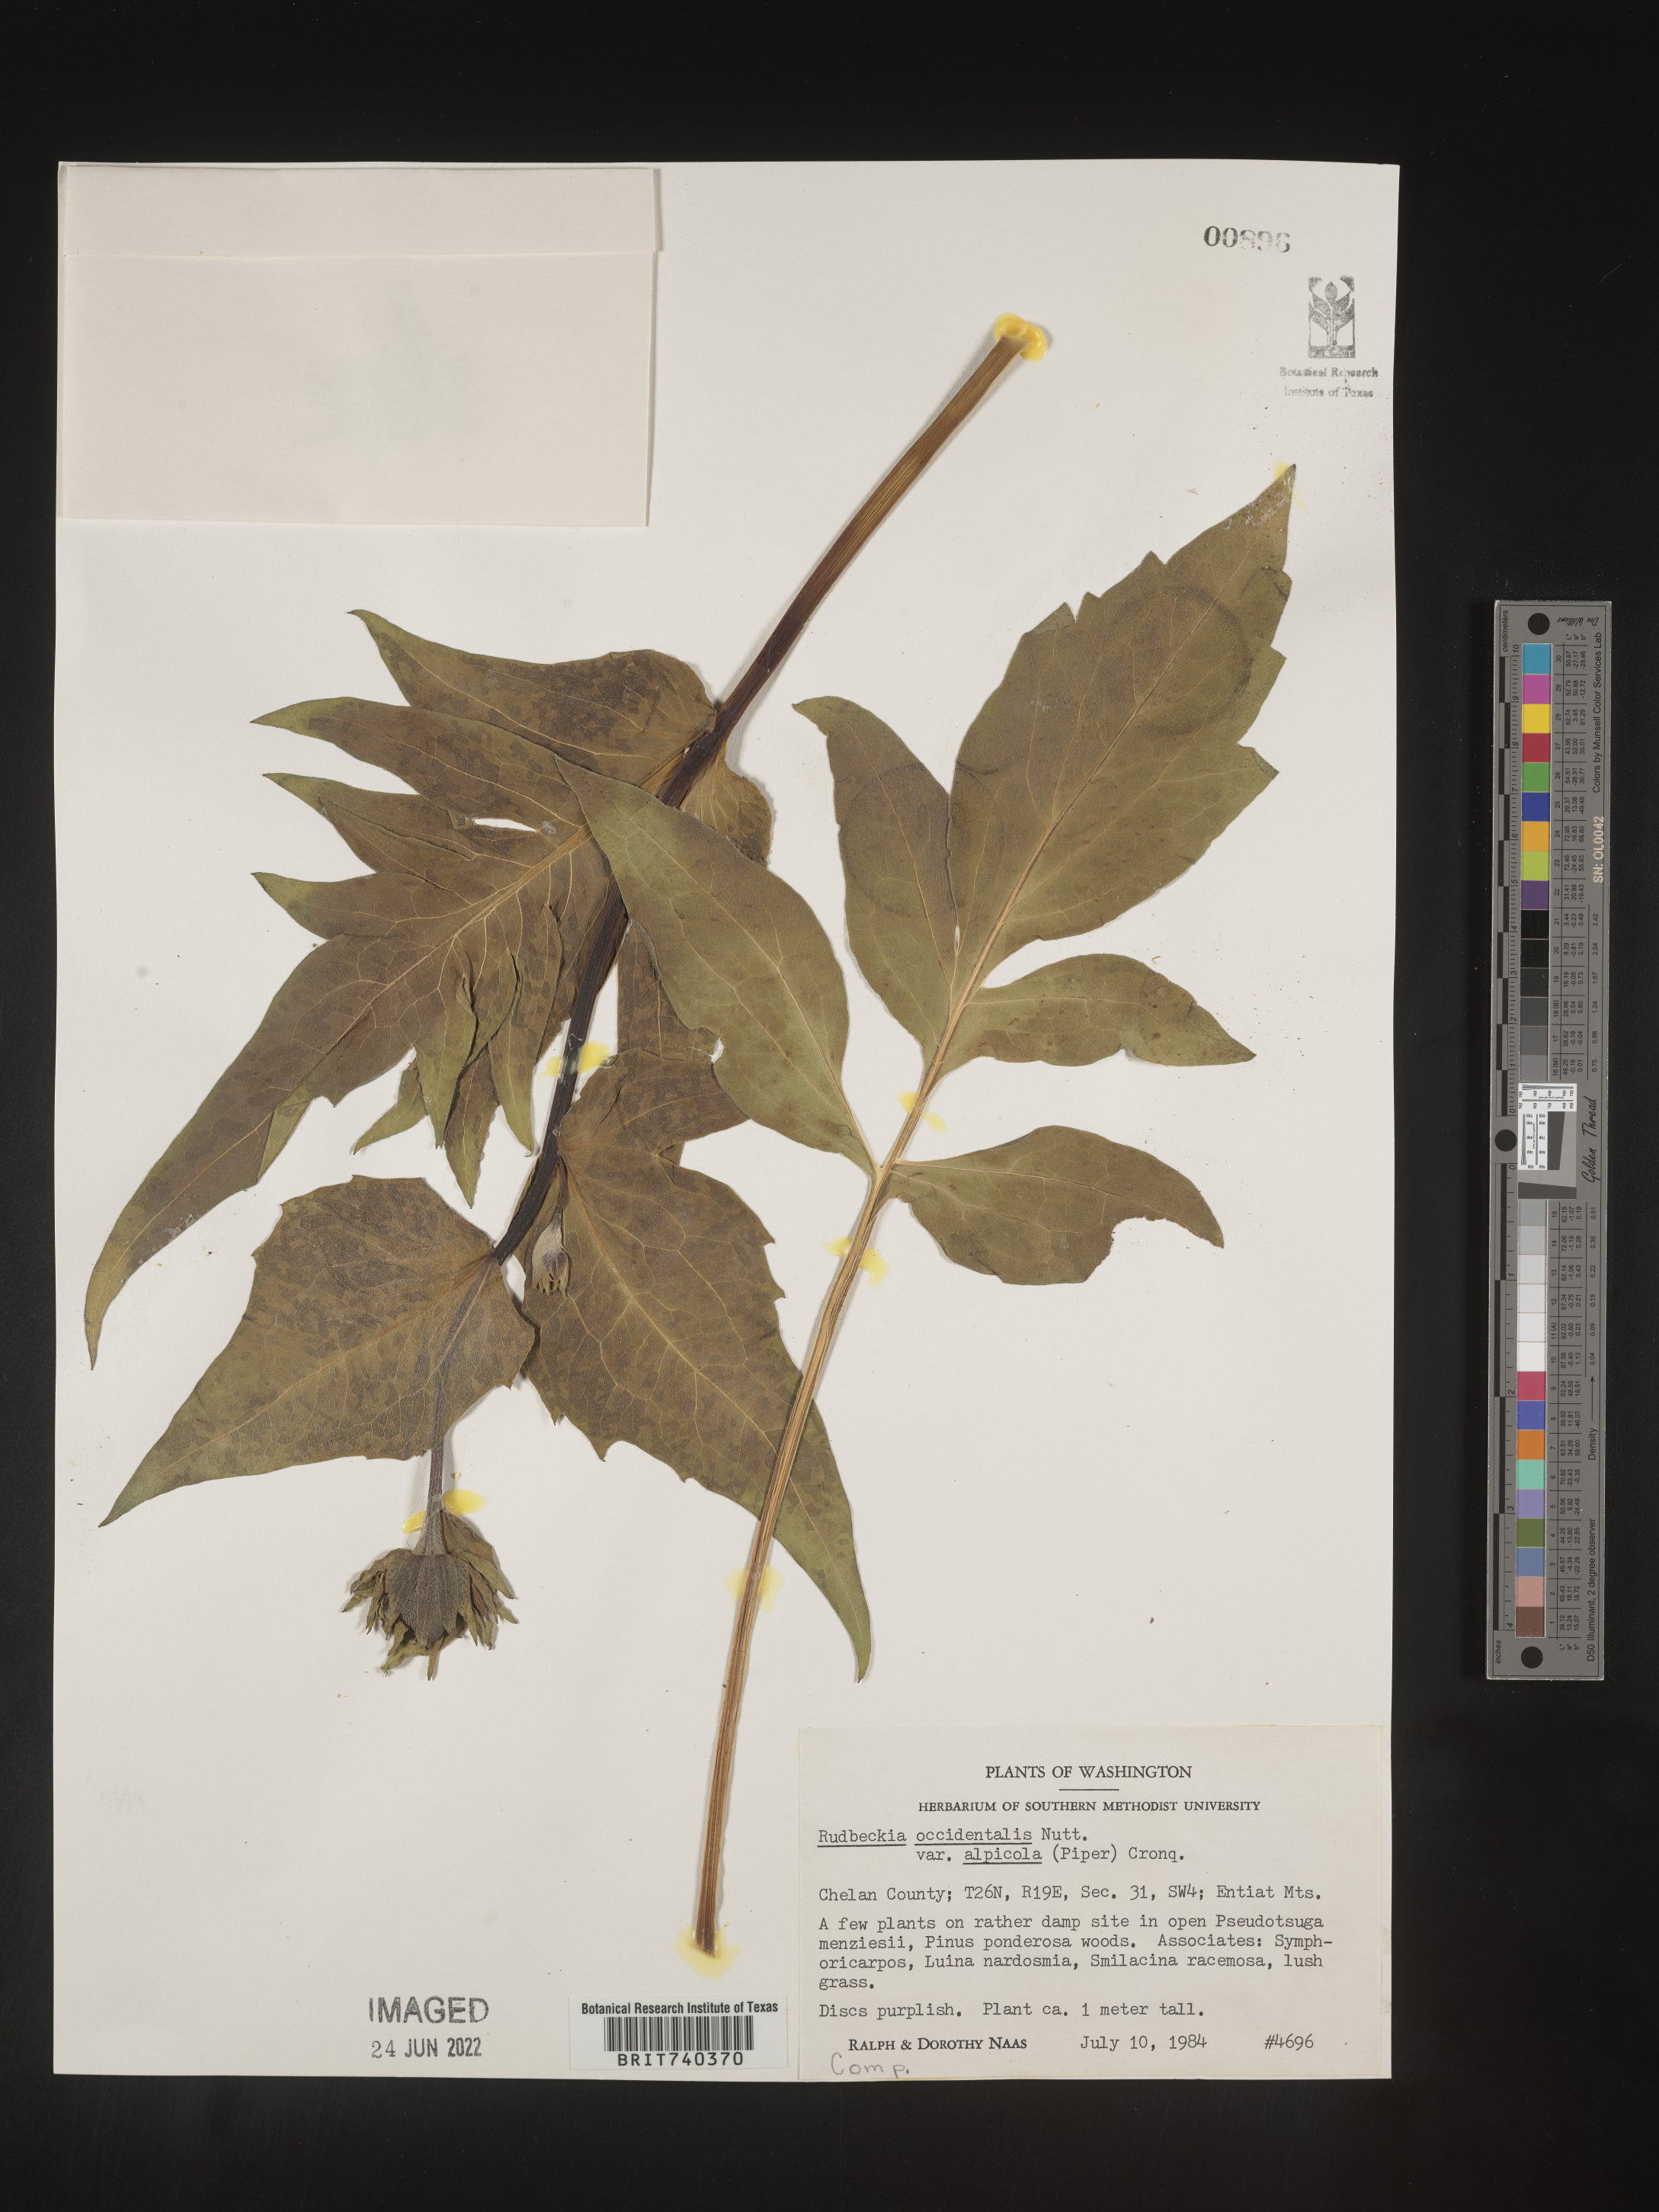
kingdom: Plantae
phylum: Tracheophyta
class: Magnoliopsida
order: Asterales
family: Asteraceae
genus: Rudbeckia
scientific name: Rudbeckia
